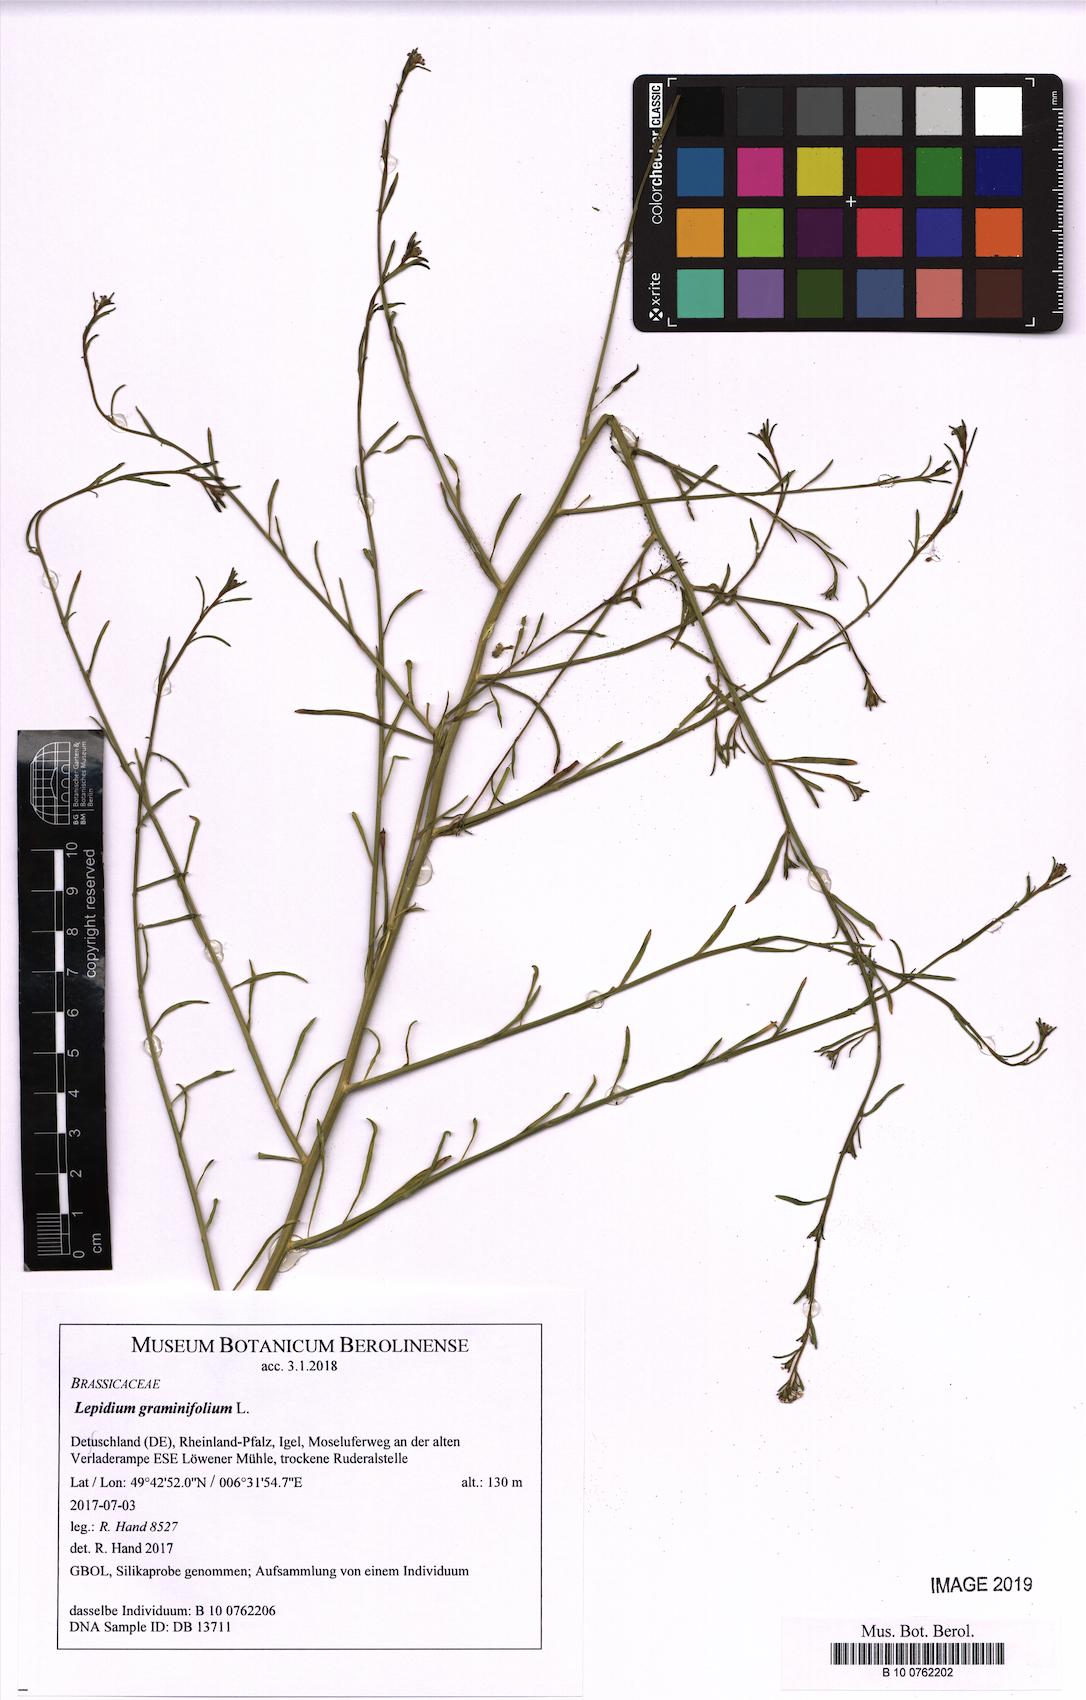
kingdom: Plantae
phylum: Tracheophyta
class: Magnoliopsida
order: Brassicales
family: Brassicaceae
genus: Lepidium
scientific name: Lepidium graminifolium
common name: Tall pepperwort
